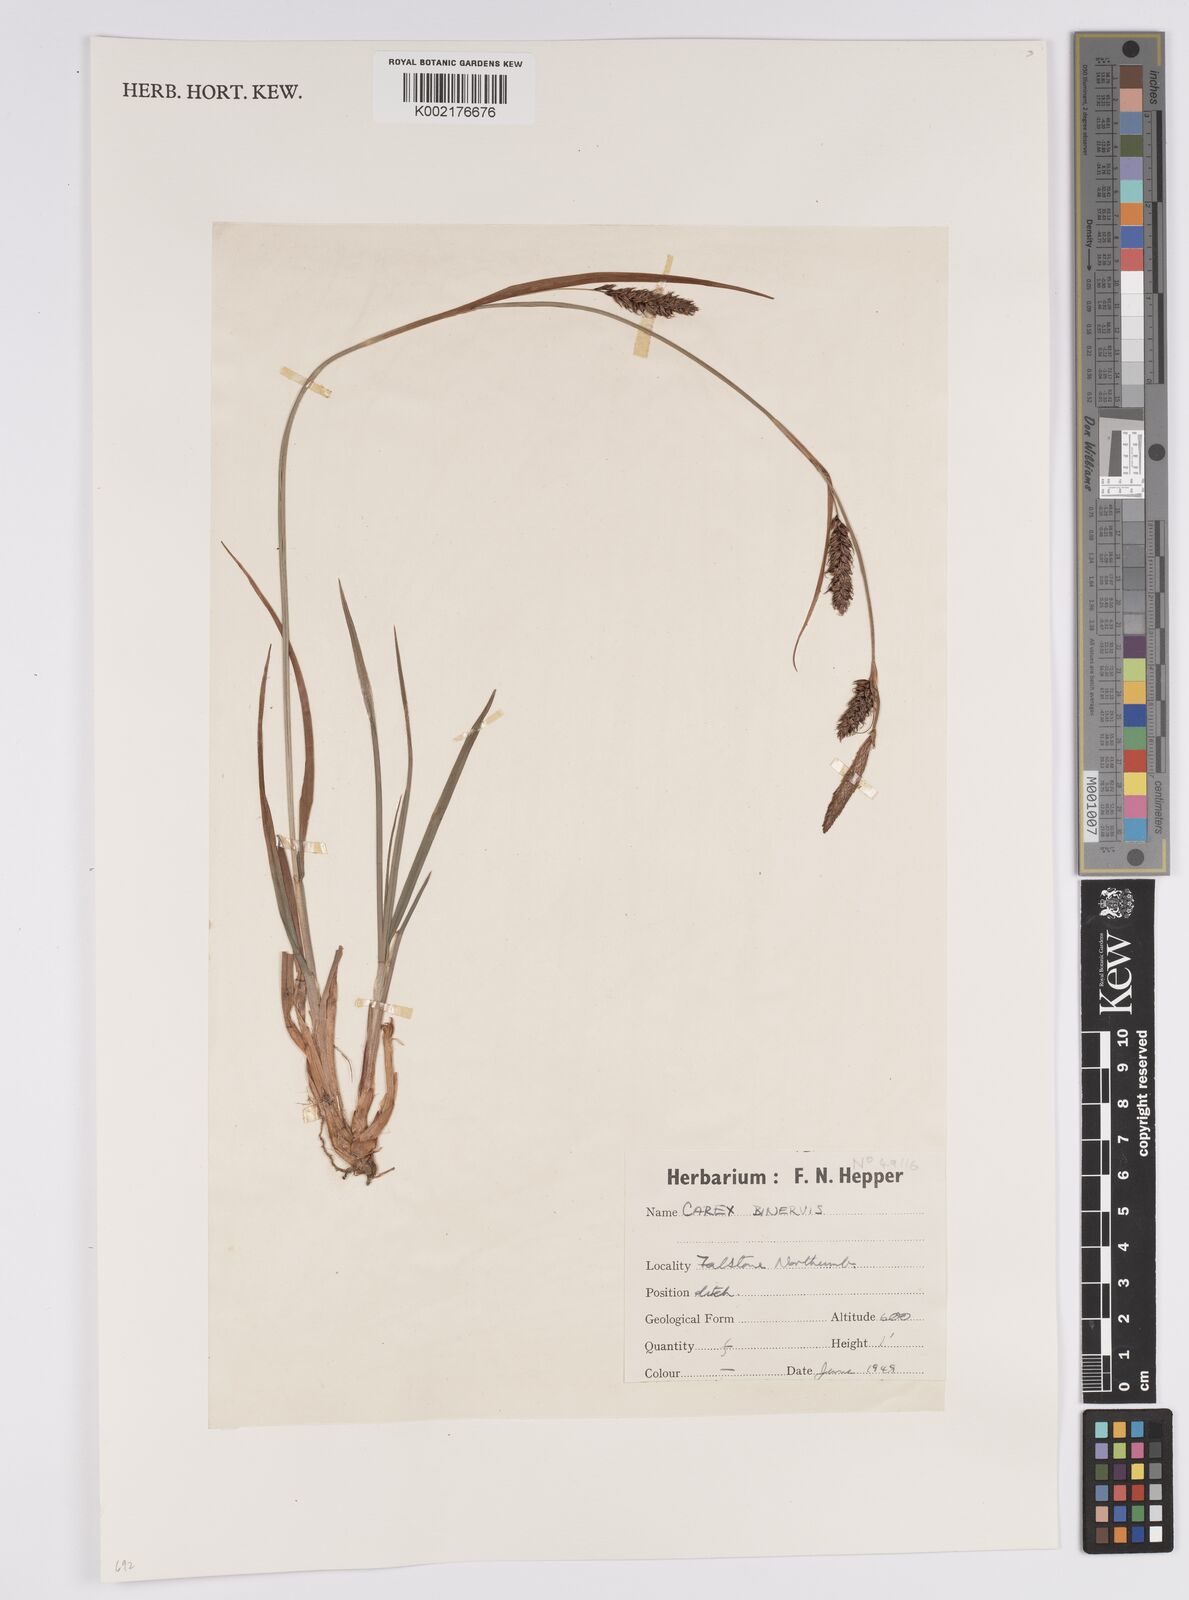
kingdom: Plantae
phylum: Tracheophyta
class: Liliopsida
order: Poales
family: Cyperaceae
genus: Carex
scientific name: Carex binervis
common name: Green-ribbed sedge
